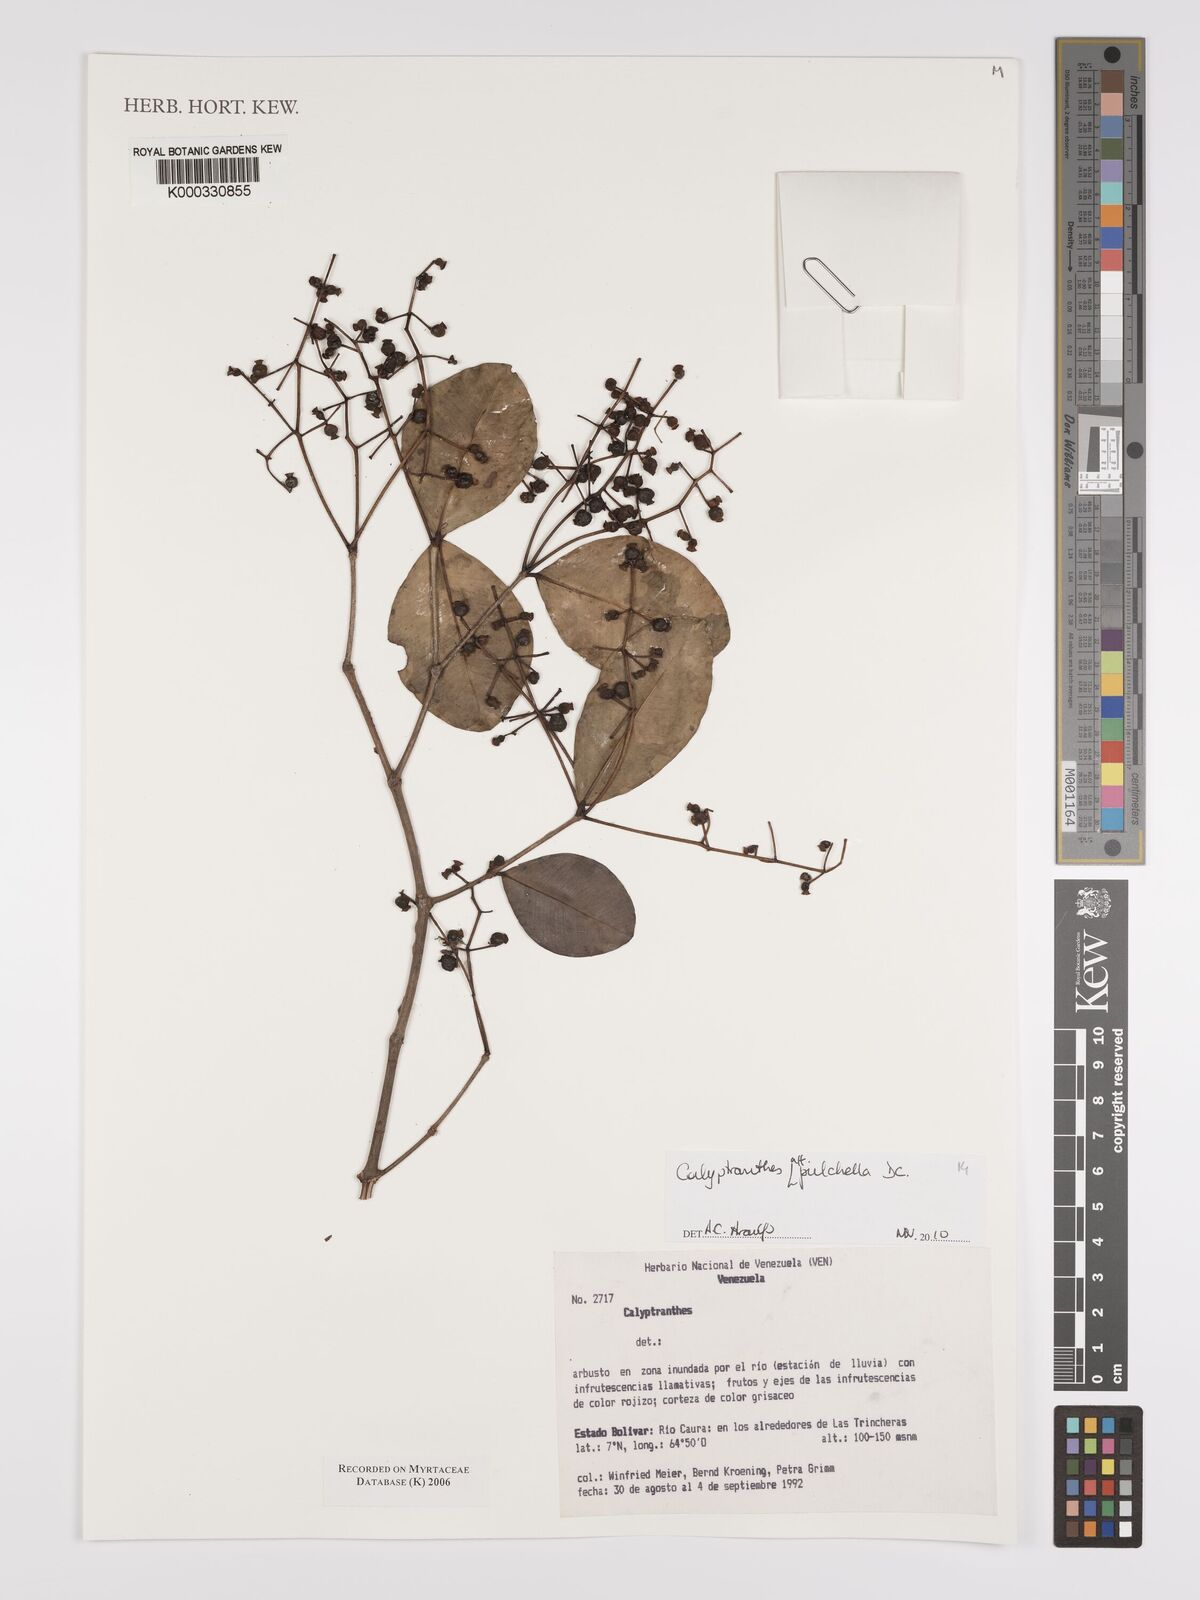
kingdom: Plantae
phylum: Tracheophyta
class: Magnoliopsida
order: Myrtales
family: Myrtaceae
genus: Calyptranthes
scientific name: Calyptranthes
